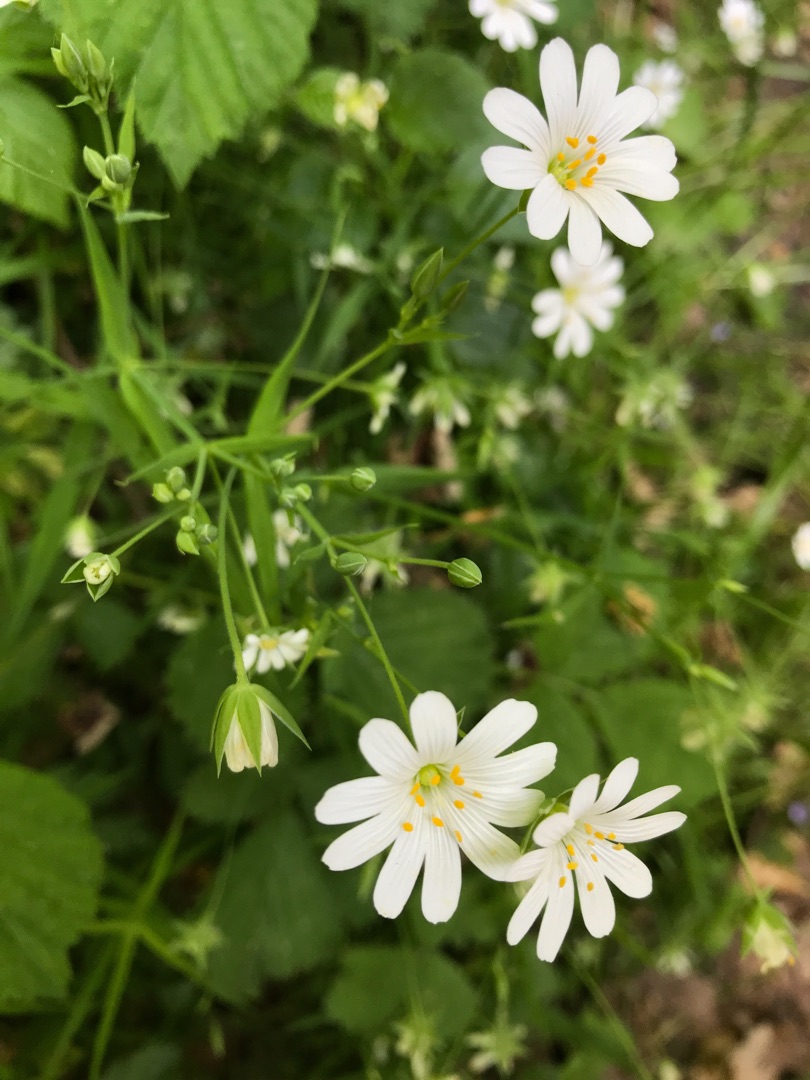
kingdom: Plantae
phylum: Tracheophyta
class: Magnoliopsida
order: Caryophyllales
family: Caryophyllaceae
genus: Rabelera
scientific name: Rabelera holostea
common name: Stor fladstjerne
